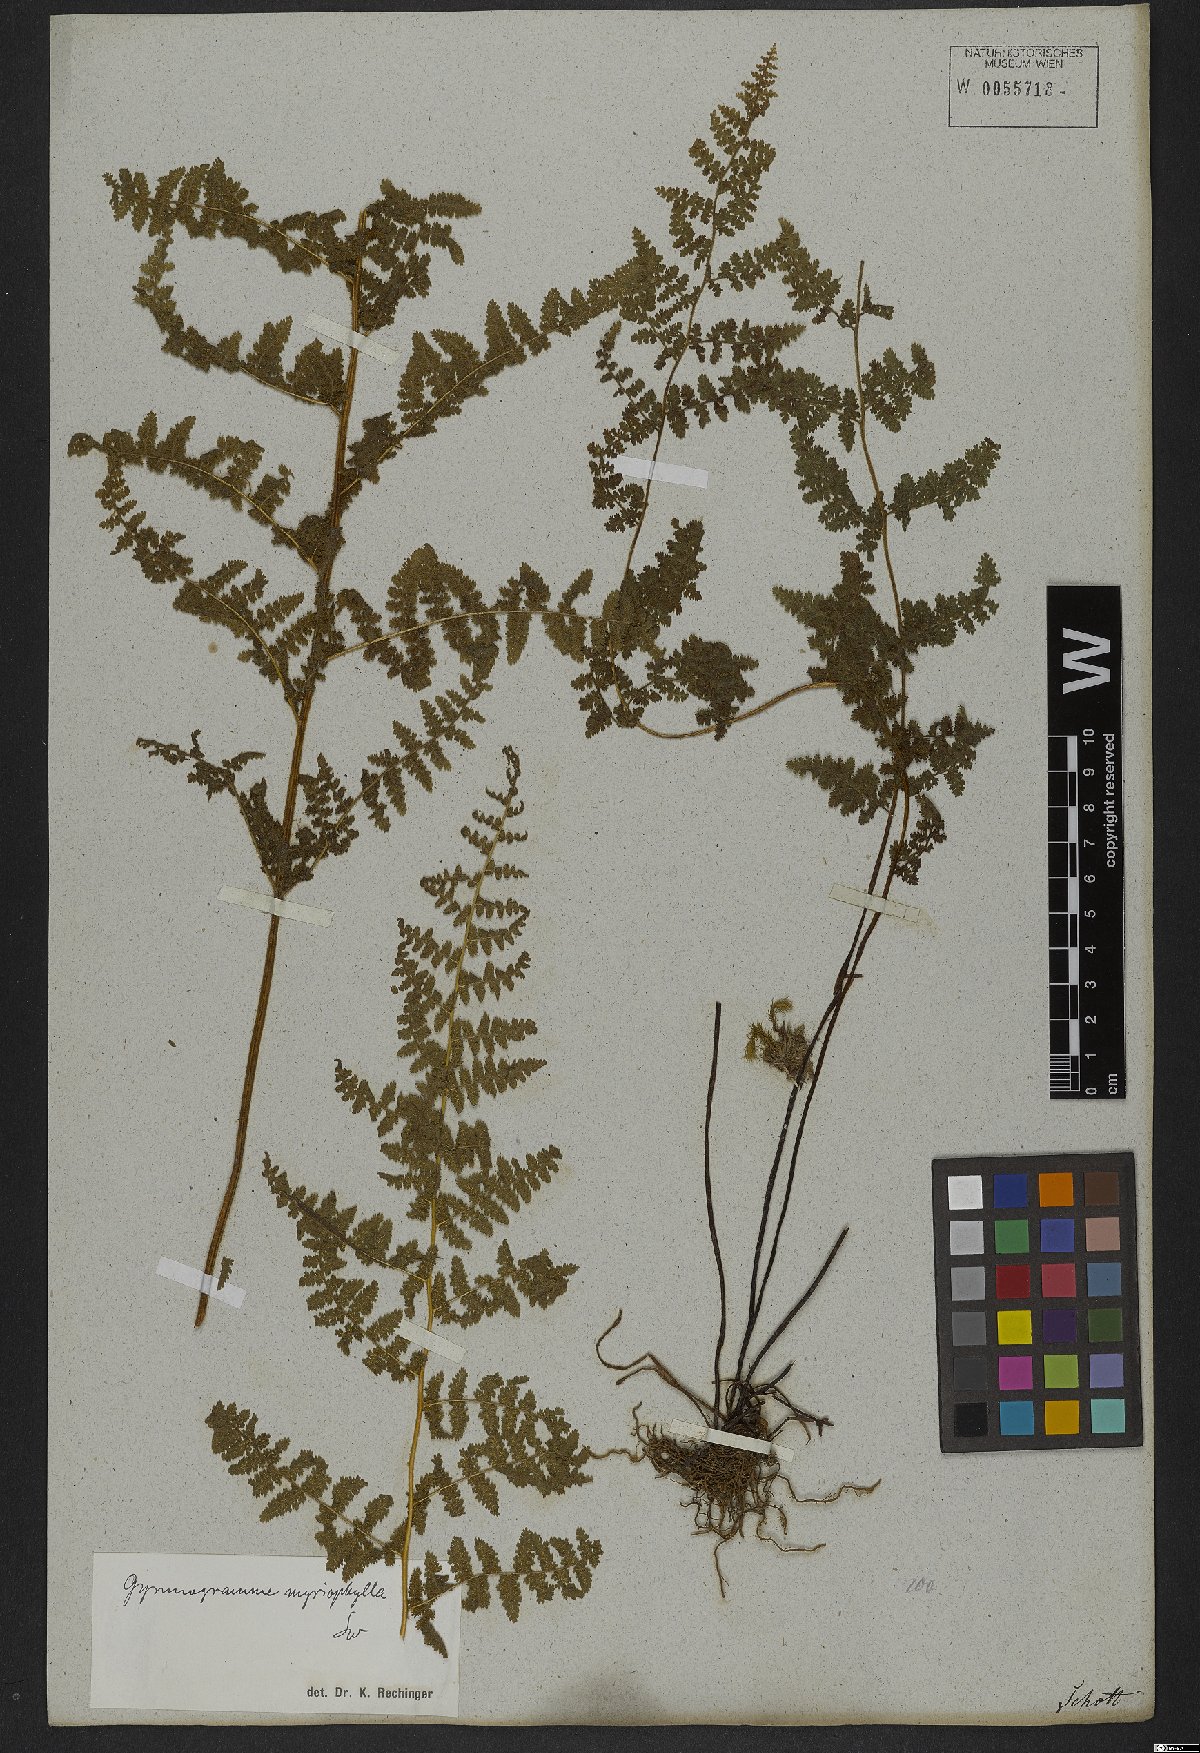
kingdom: Plantae
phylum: Tracheophyta
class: Polypodiopsida
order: Polypodiales
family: Pteridaceae
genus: Tryonia
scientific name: Tryonia myriophylla
